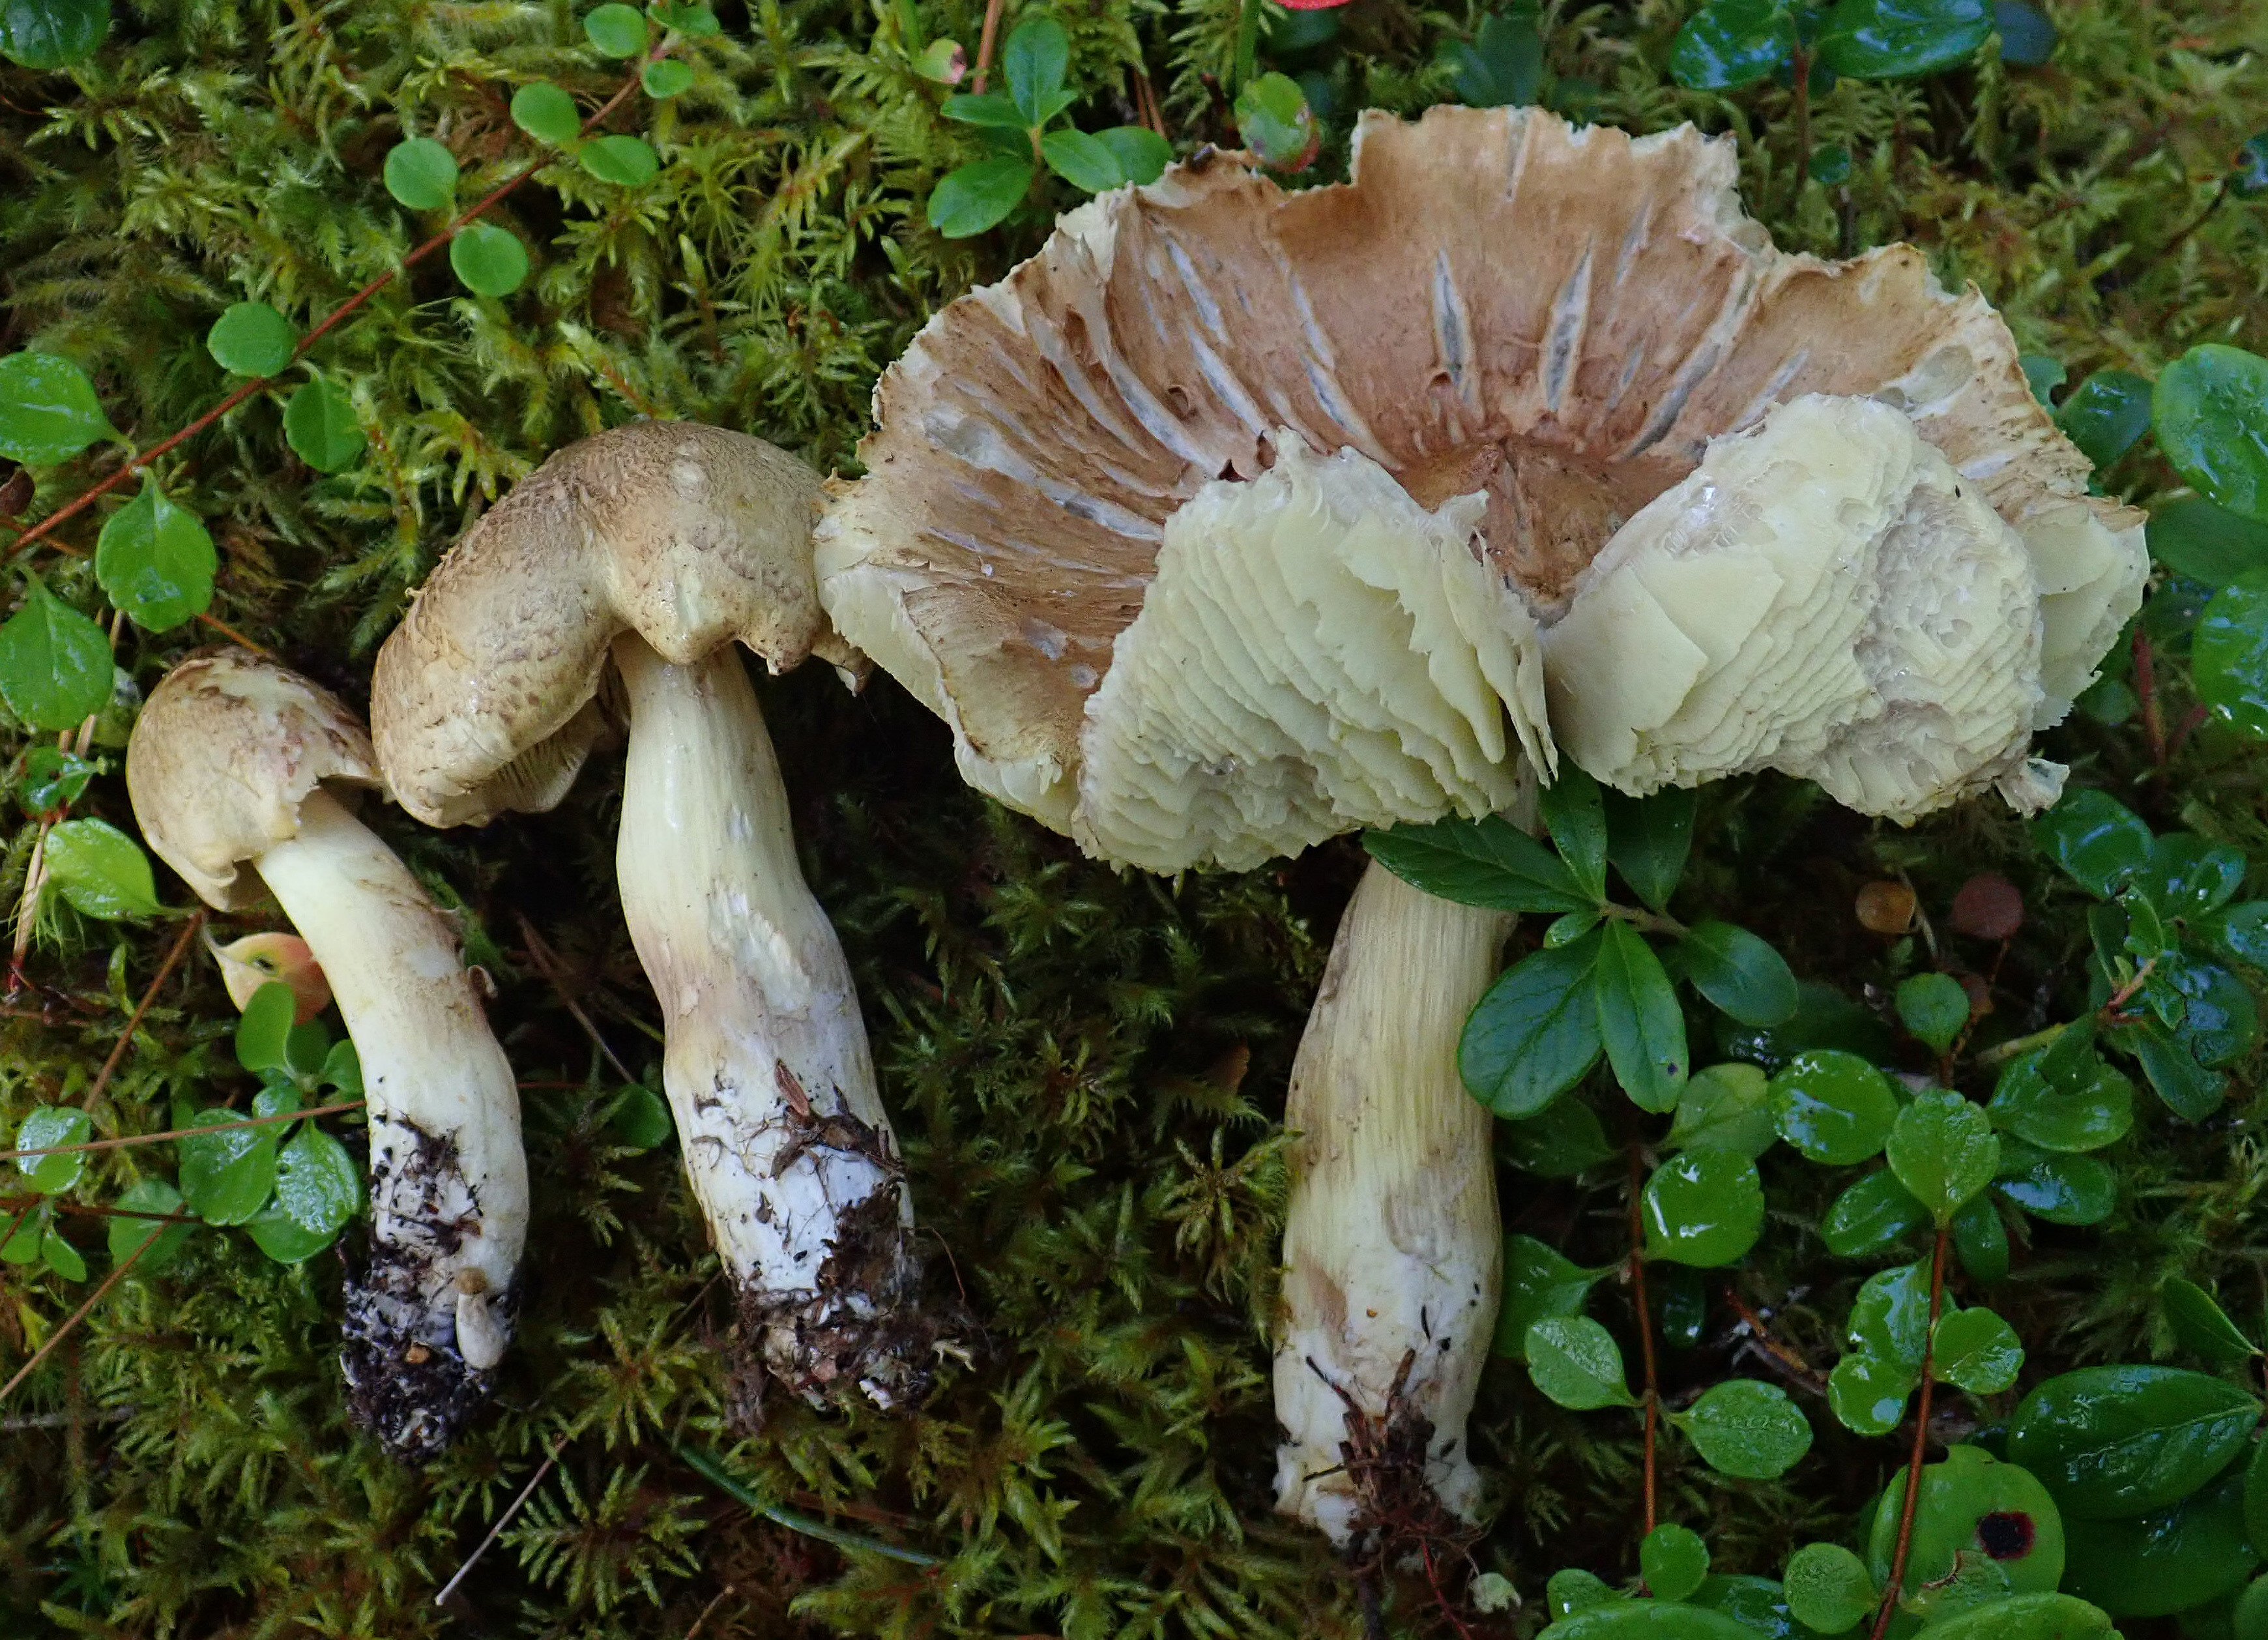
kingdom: Fungi
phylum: Basidiomycota
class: Agaricomycetes
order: Agaricales
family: Tricholomataceae
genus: Tricholoma
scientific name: Tricholoma aestuans
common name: Acrid knight
